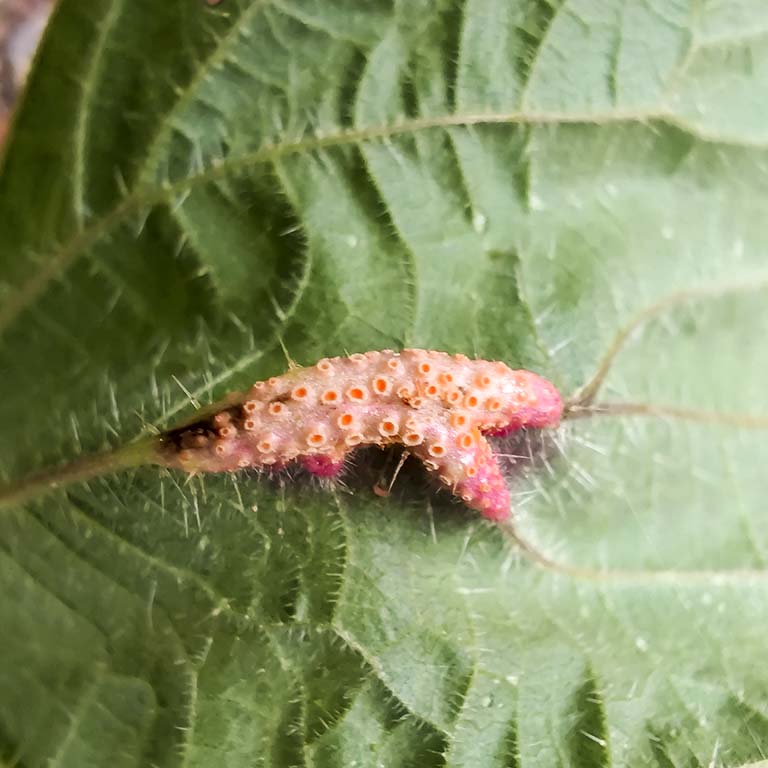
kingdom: Fungi
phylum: Basidiomycota
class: Pucciniomycetes
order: Pucciniales
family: Pucciniaceae
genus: Puccinia
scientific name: Puccinia urticata
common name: nældegalle-tvecellerust
